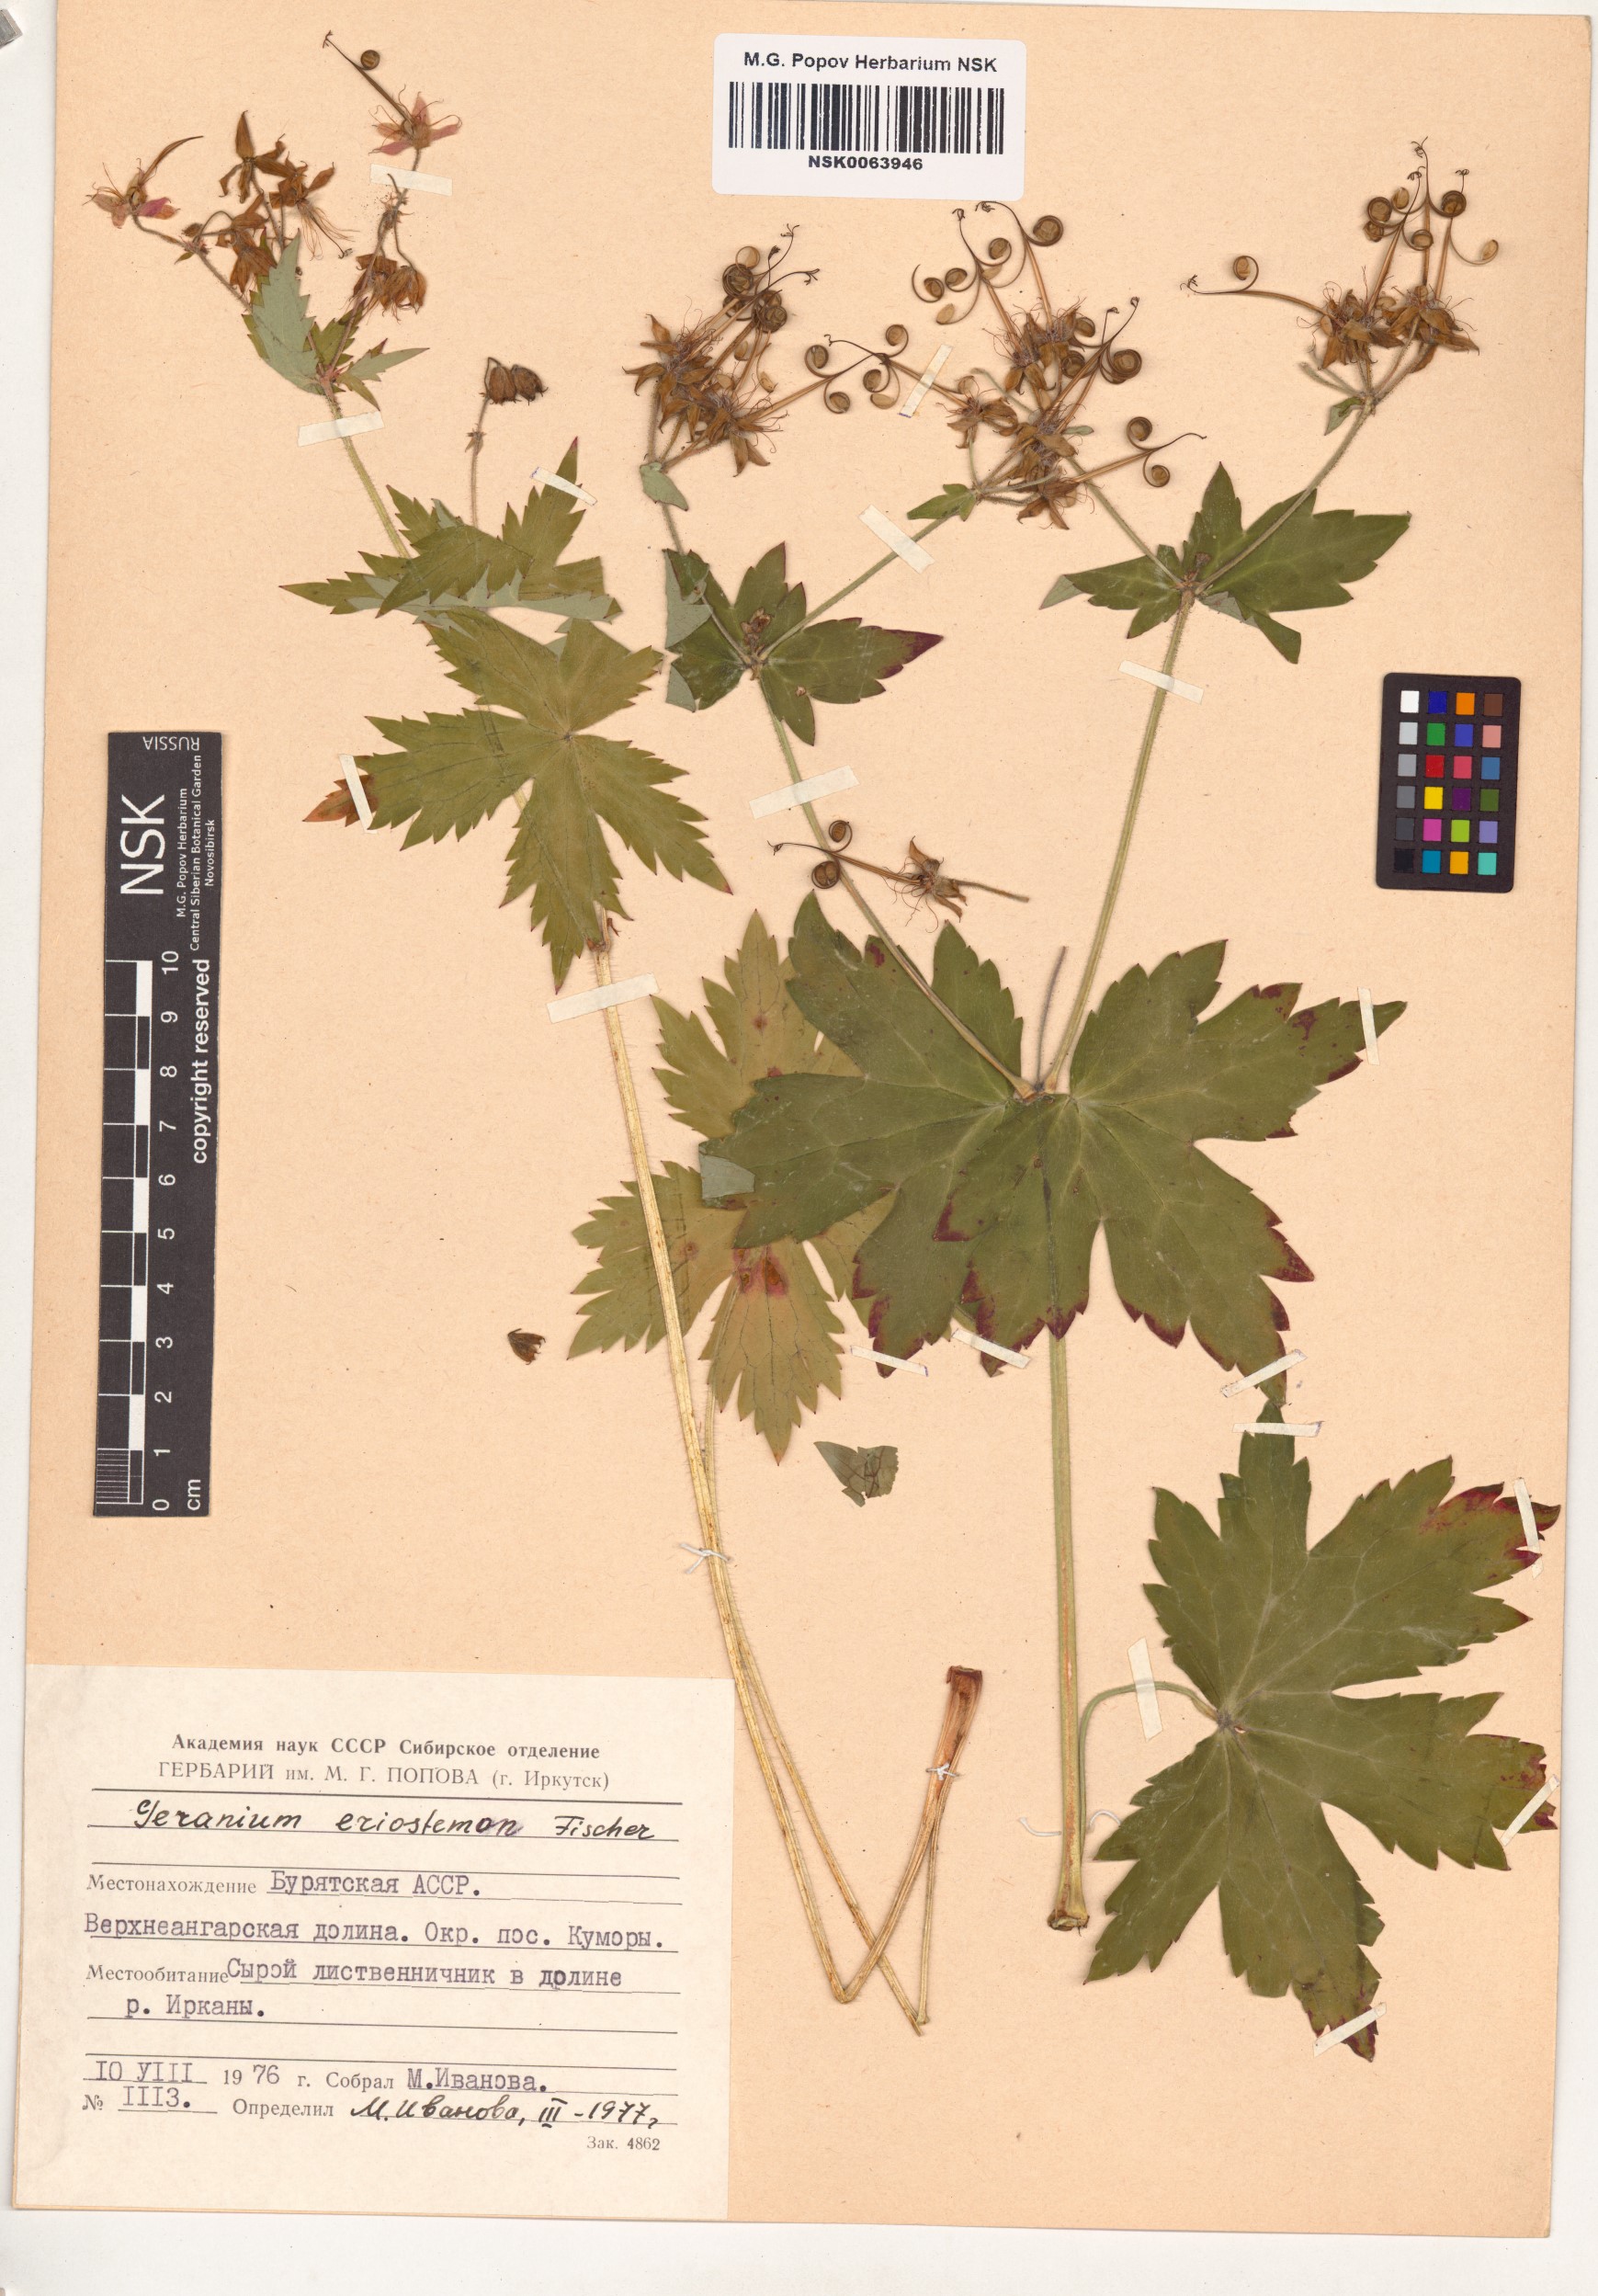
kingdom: Plantae
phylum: Tracheophyta
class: Magnoliopsida
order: Geraniales
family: Geraniaceae
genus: Geranium
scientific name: Geranium platyanthum
